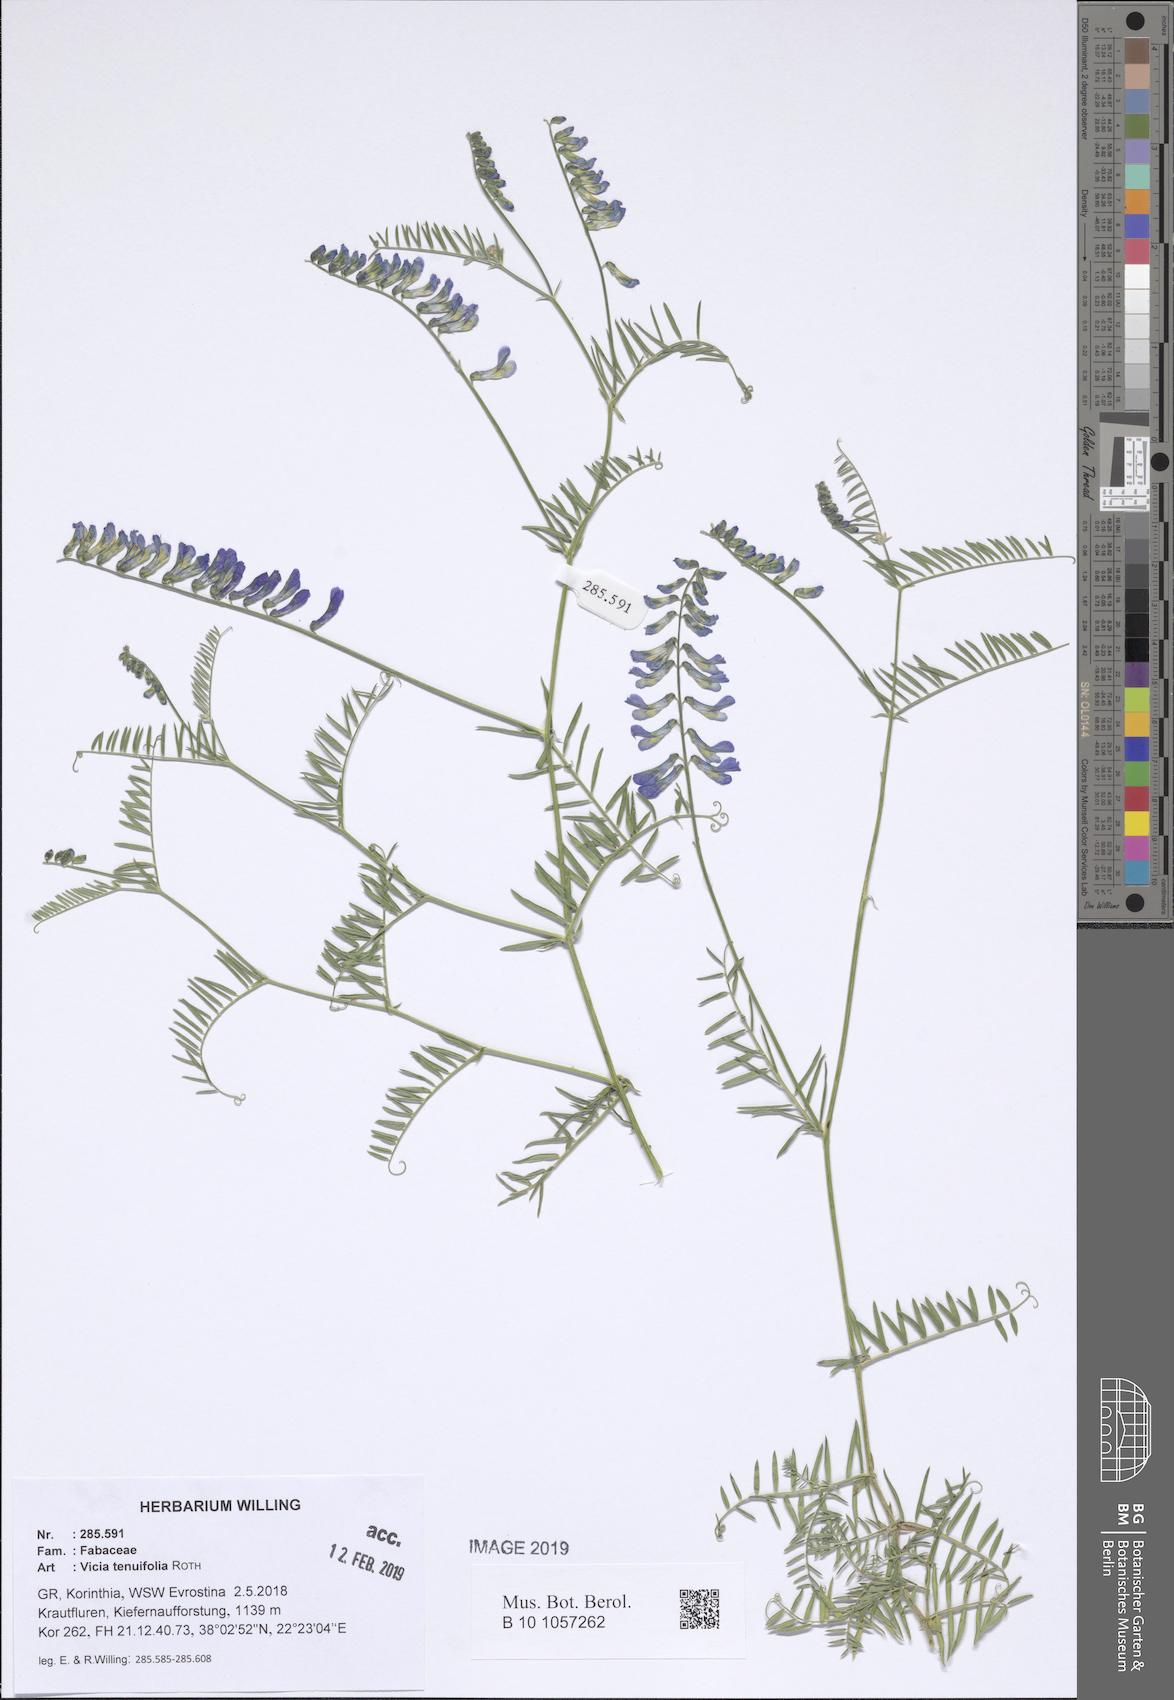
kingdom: Plantae
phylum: Tracheophyta
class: Magnoliopsida
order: Fabales
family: Fabaceae
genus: Vicia
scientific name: Vicia tenuifolia
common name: Fine-leaved vetch
